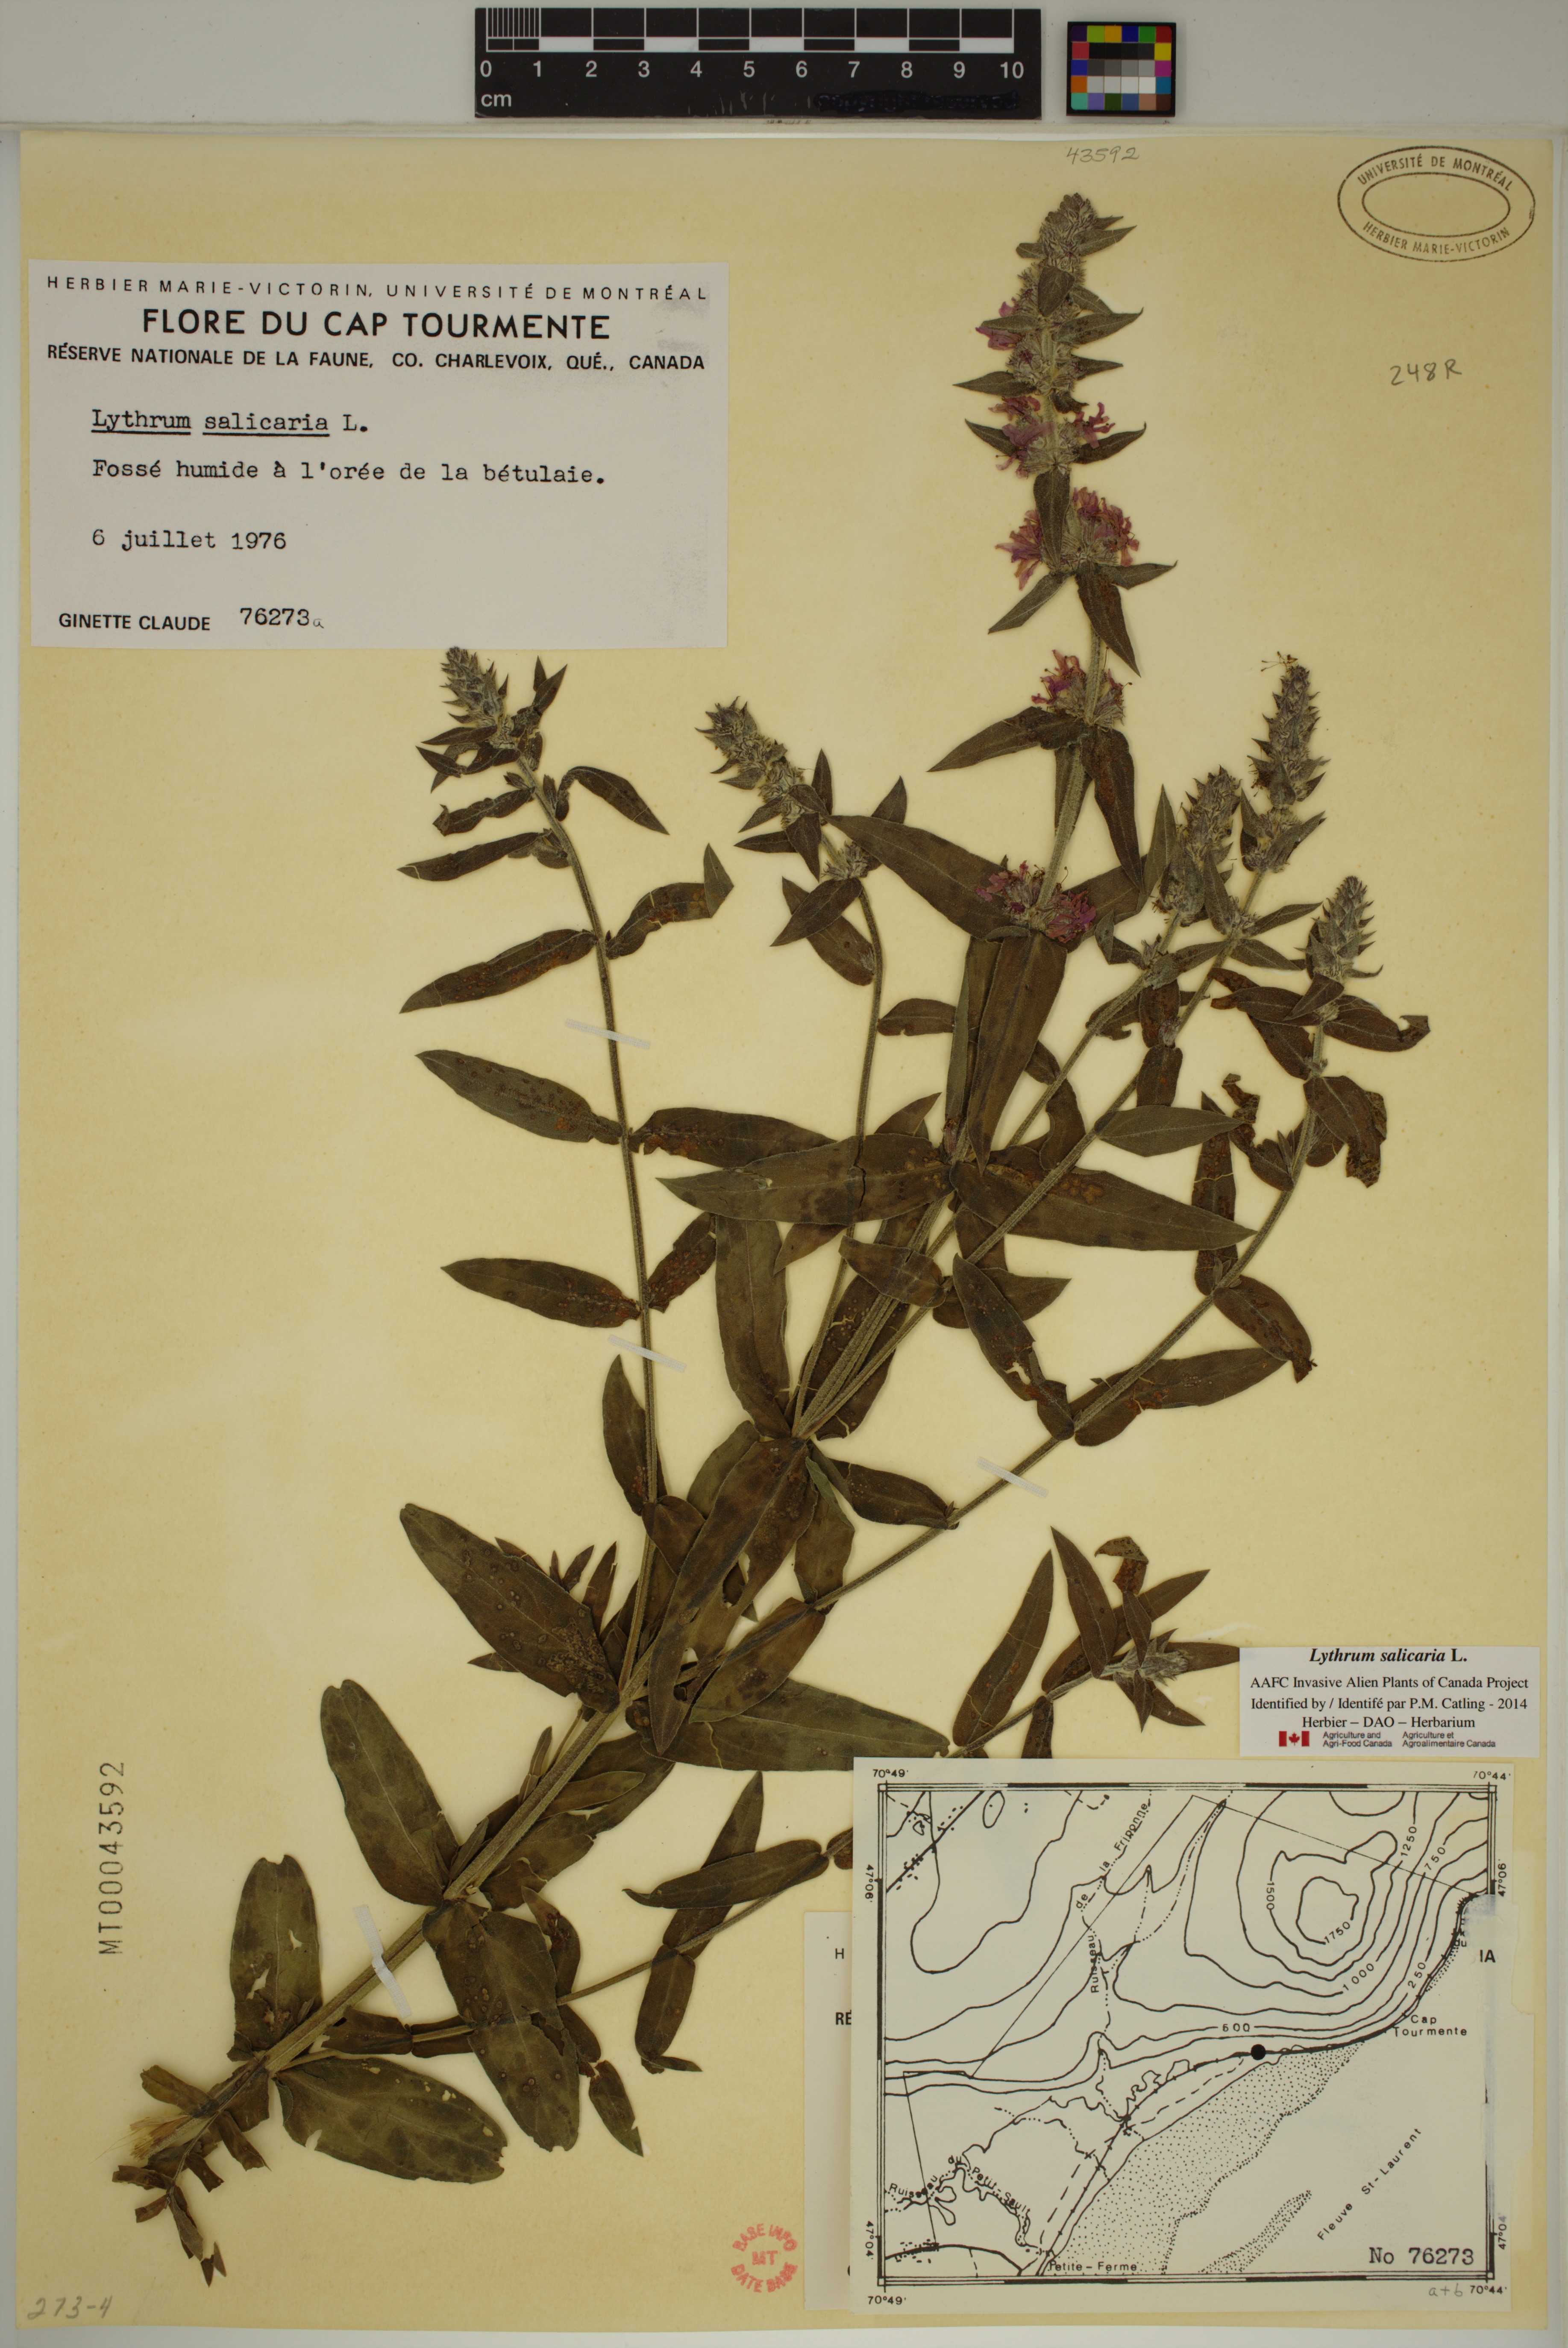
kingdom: Plantae
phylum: Tracheophyta
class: Magnoliopsida
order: Myrtales
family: Lythraceae
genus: Lythrum
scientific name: Lythrum salicaria
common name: Purple loosestrife
